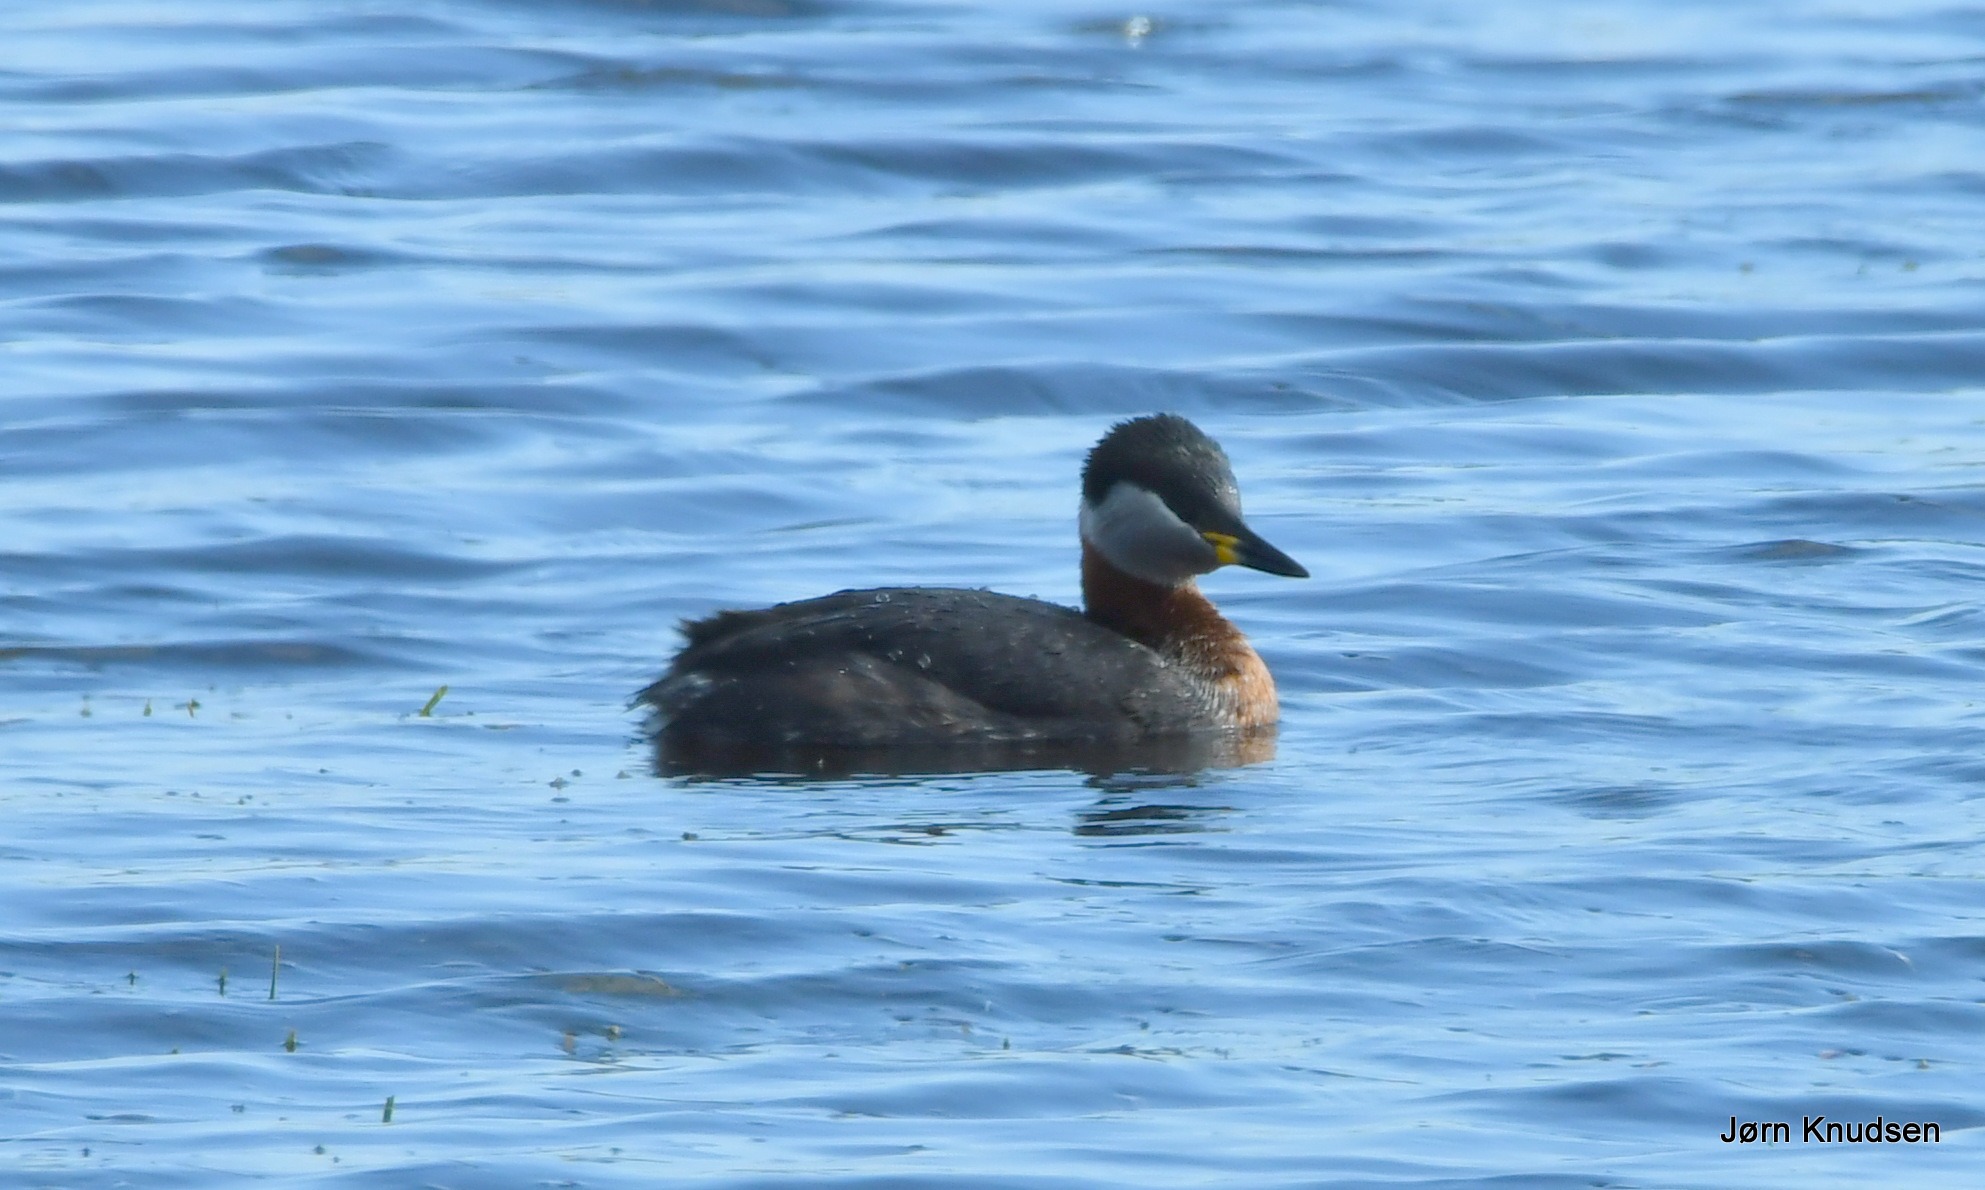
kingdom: Animalia
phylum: Chordata
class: Aves
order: Podicipediformes
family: Podicipedidae
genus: Podiceps
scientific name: Podiceps grisegena
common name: Gråstrubet lappedykker
